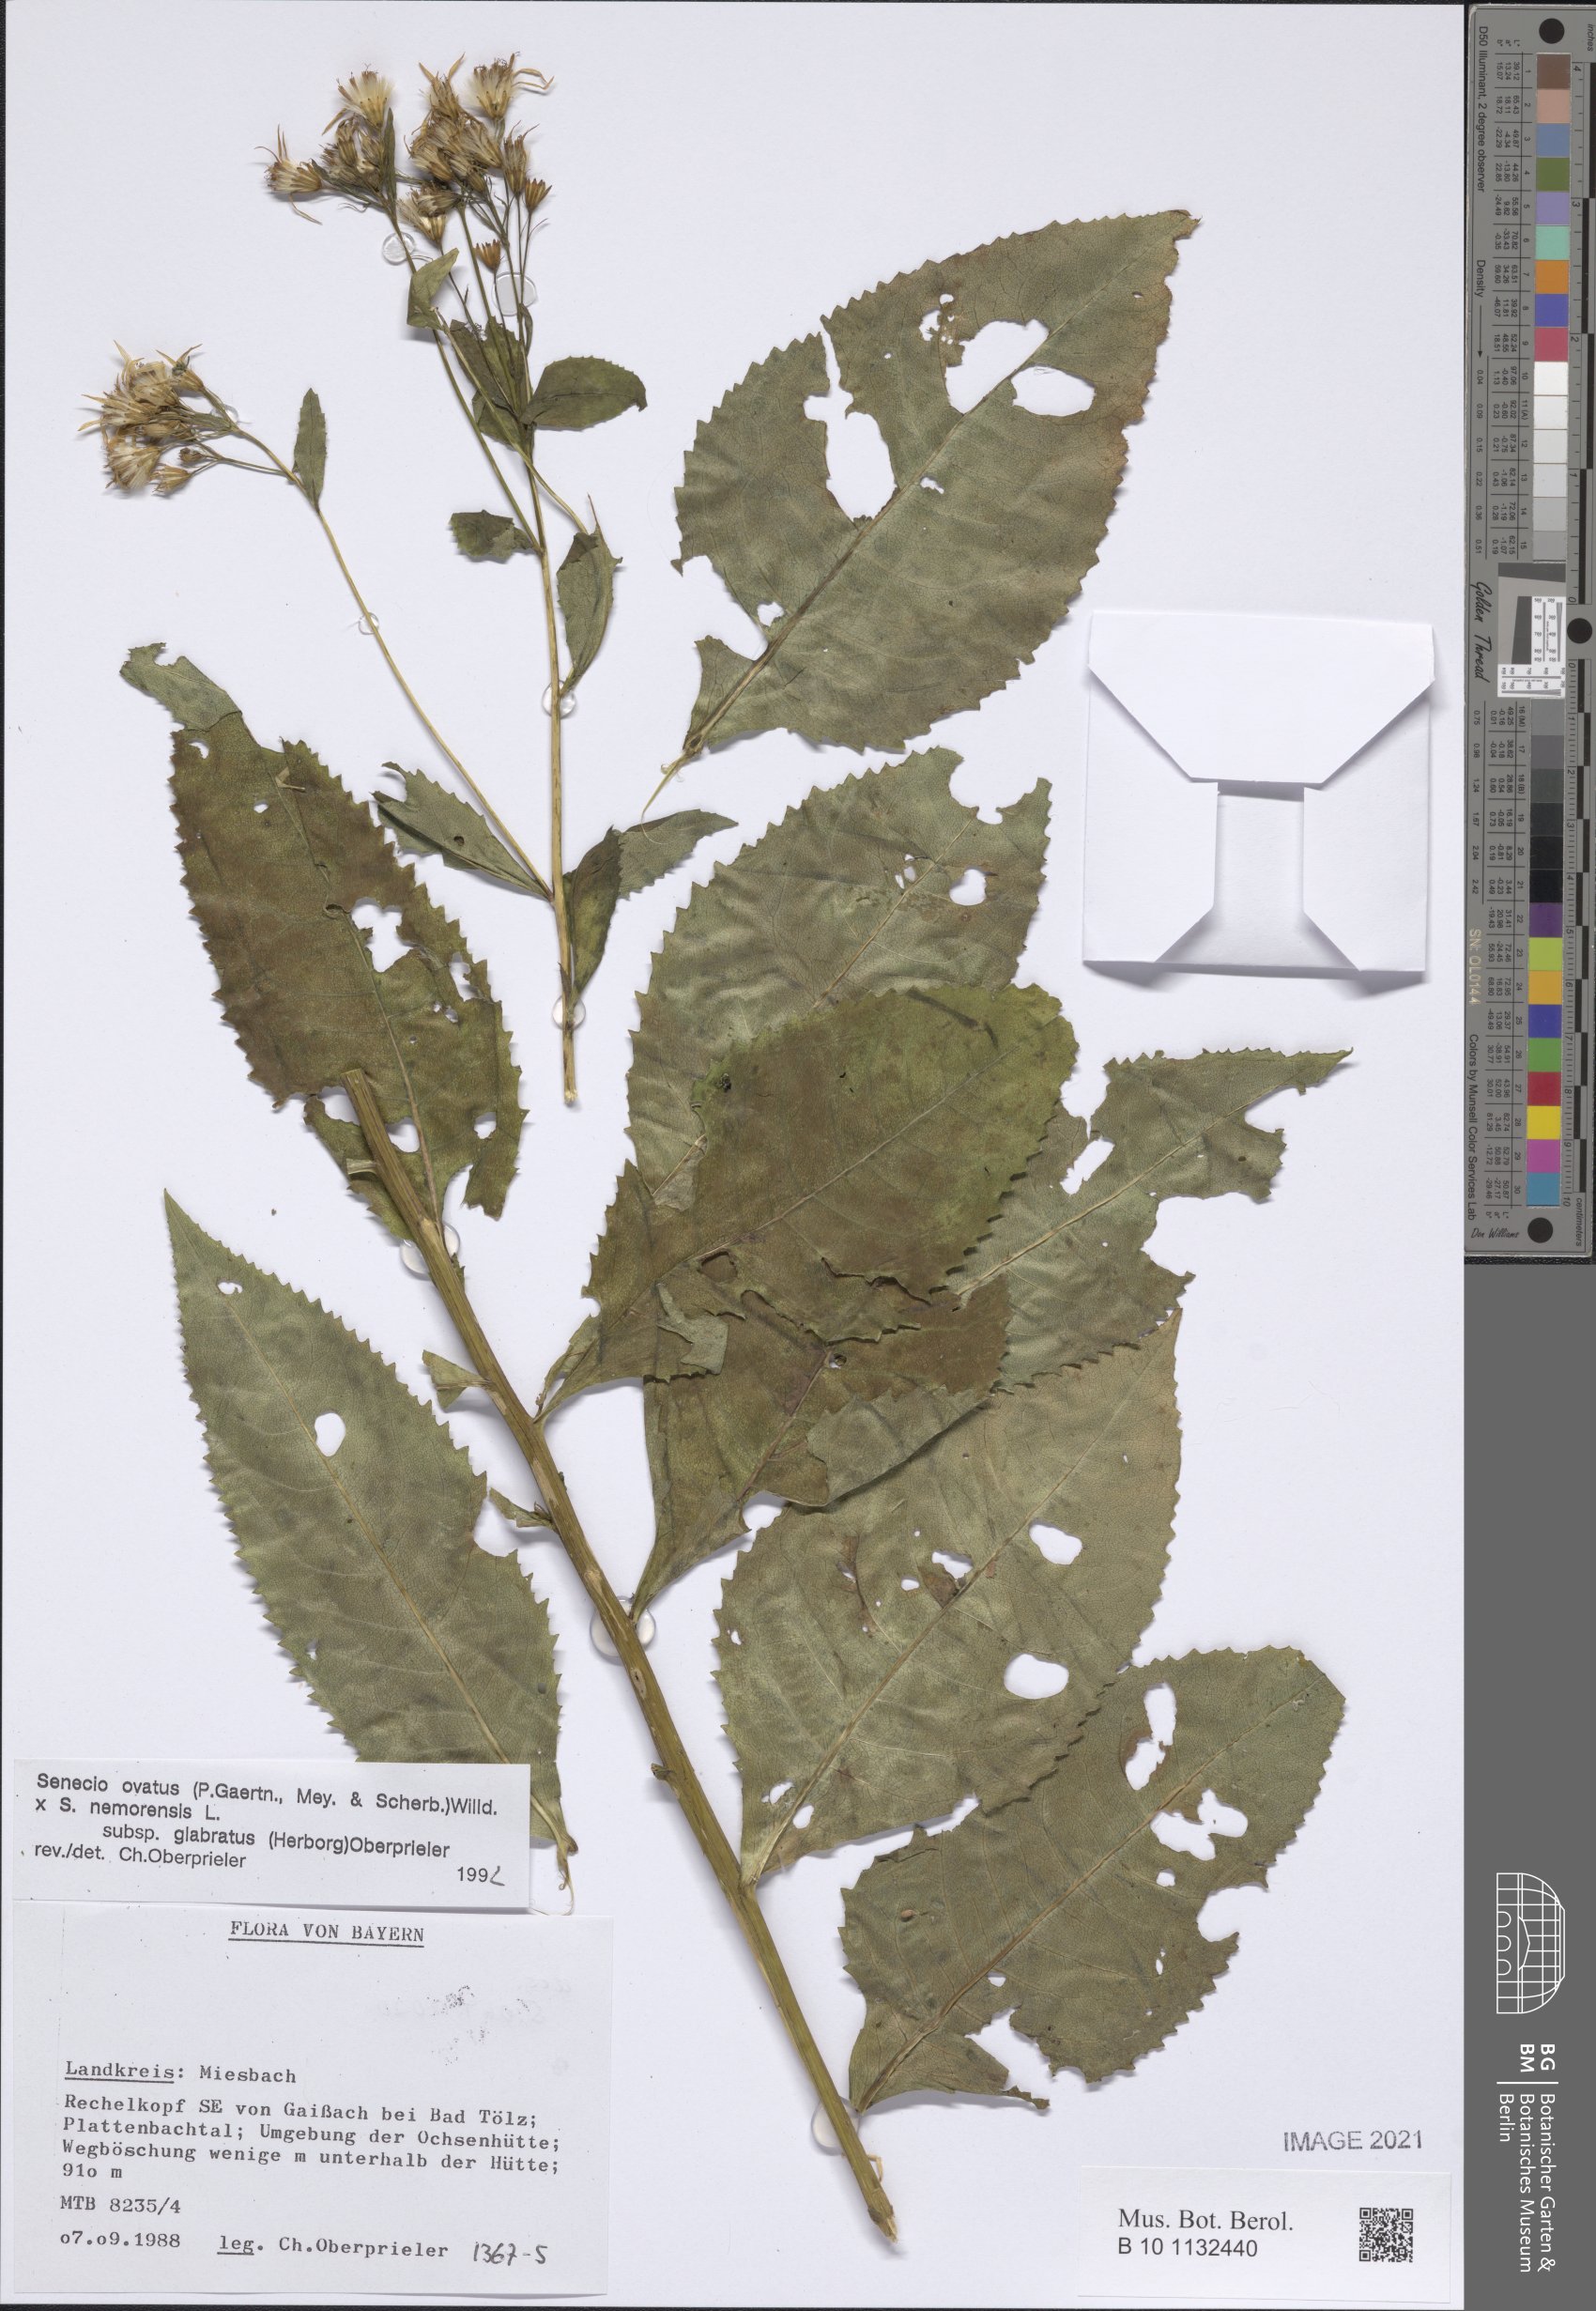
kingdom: Plantae
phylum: Tracheophyta
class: Magnoliopsida
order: Asterales
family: Asteraceae
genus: Senecio
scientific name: Senecio ovatus
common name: Wood ragwort
